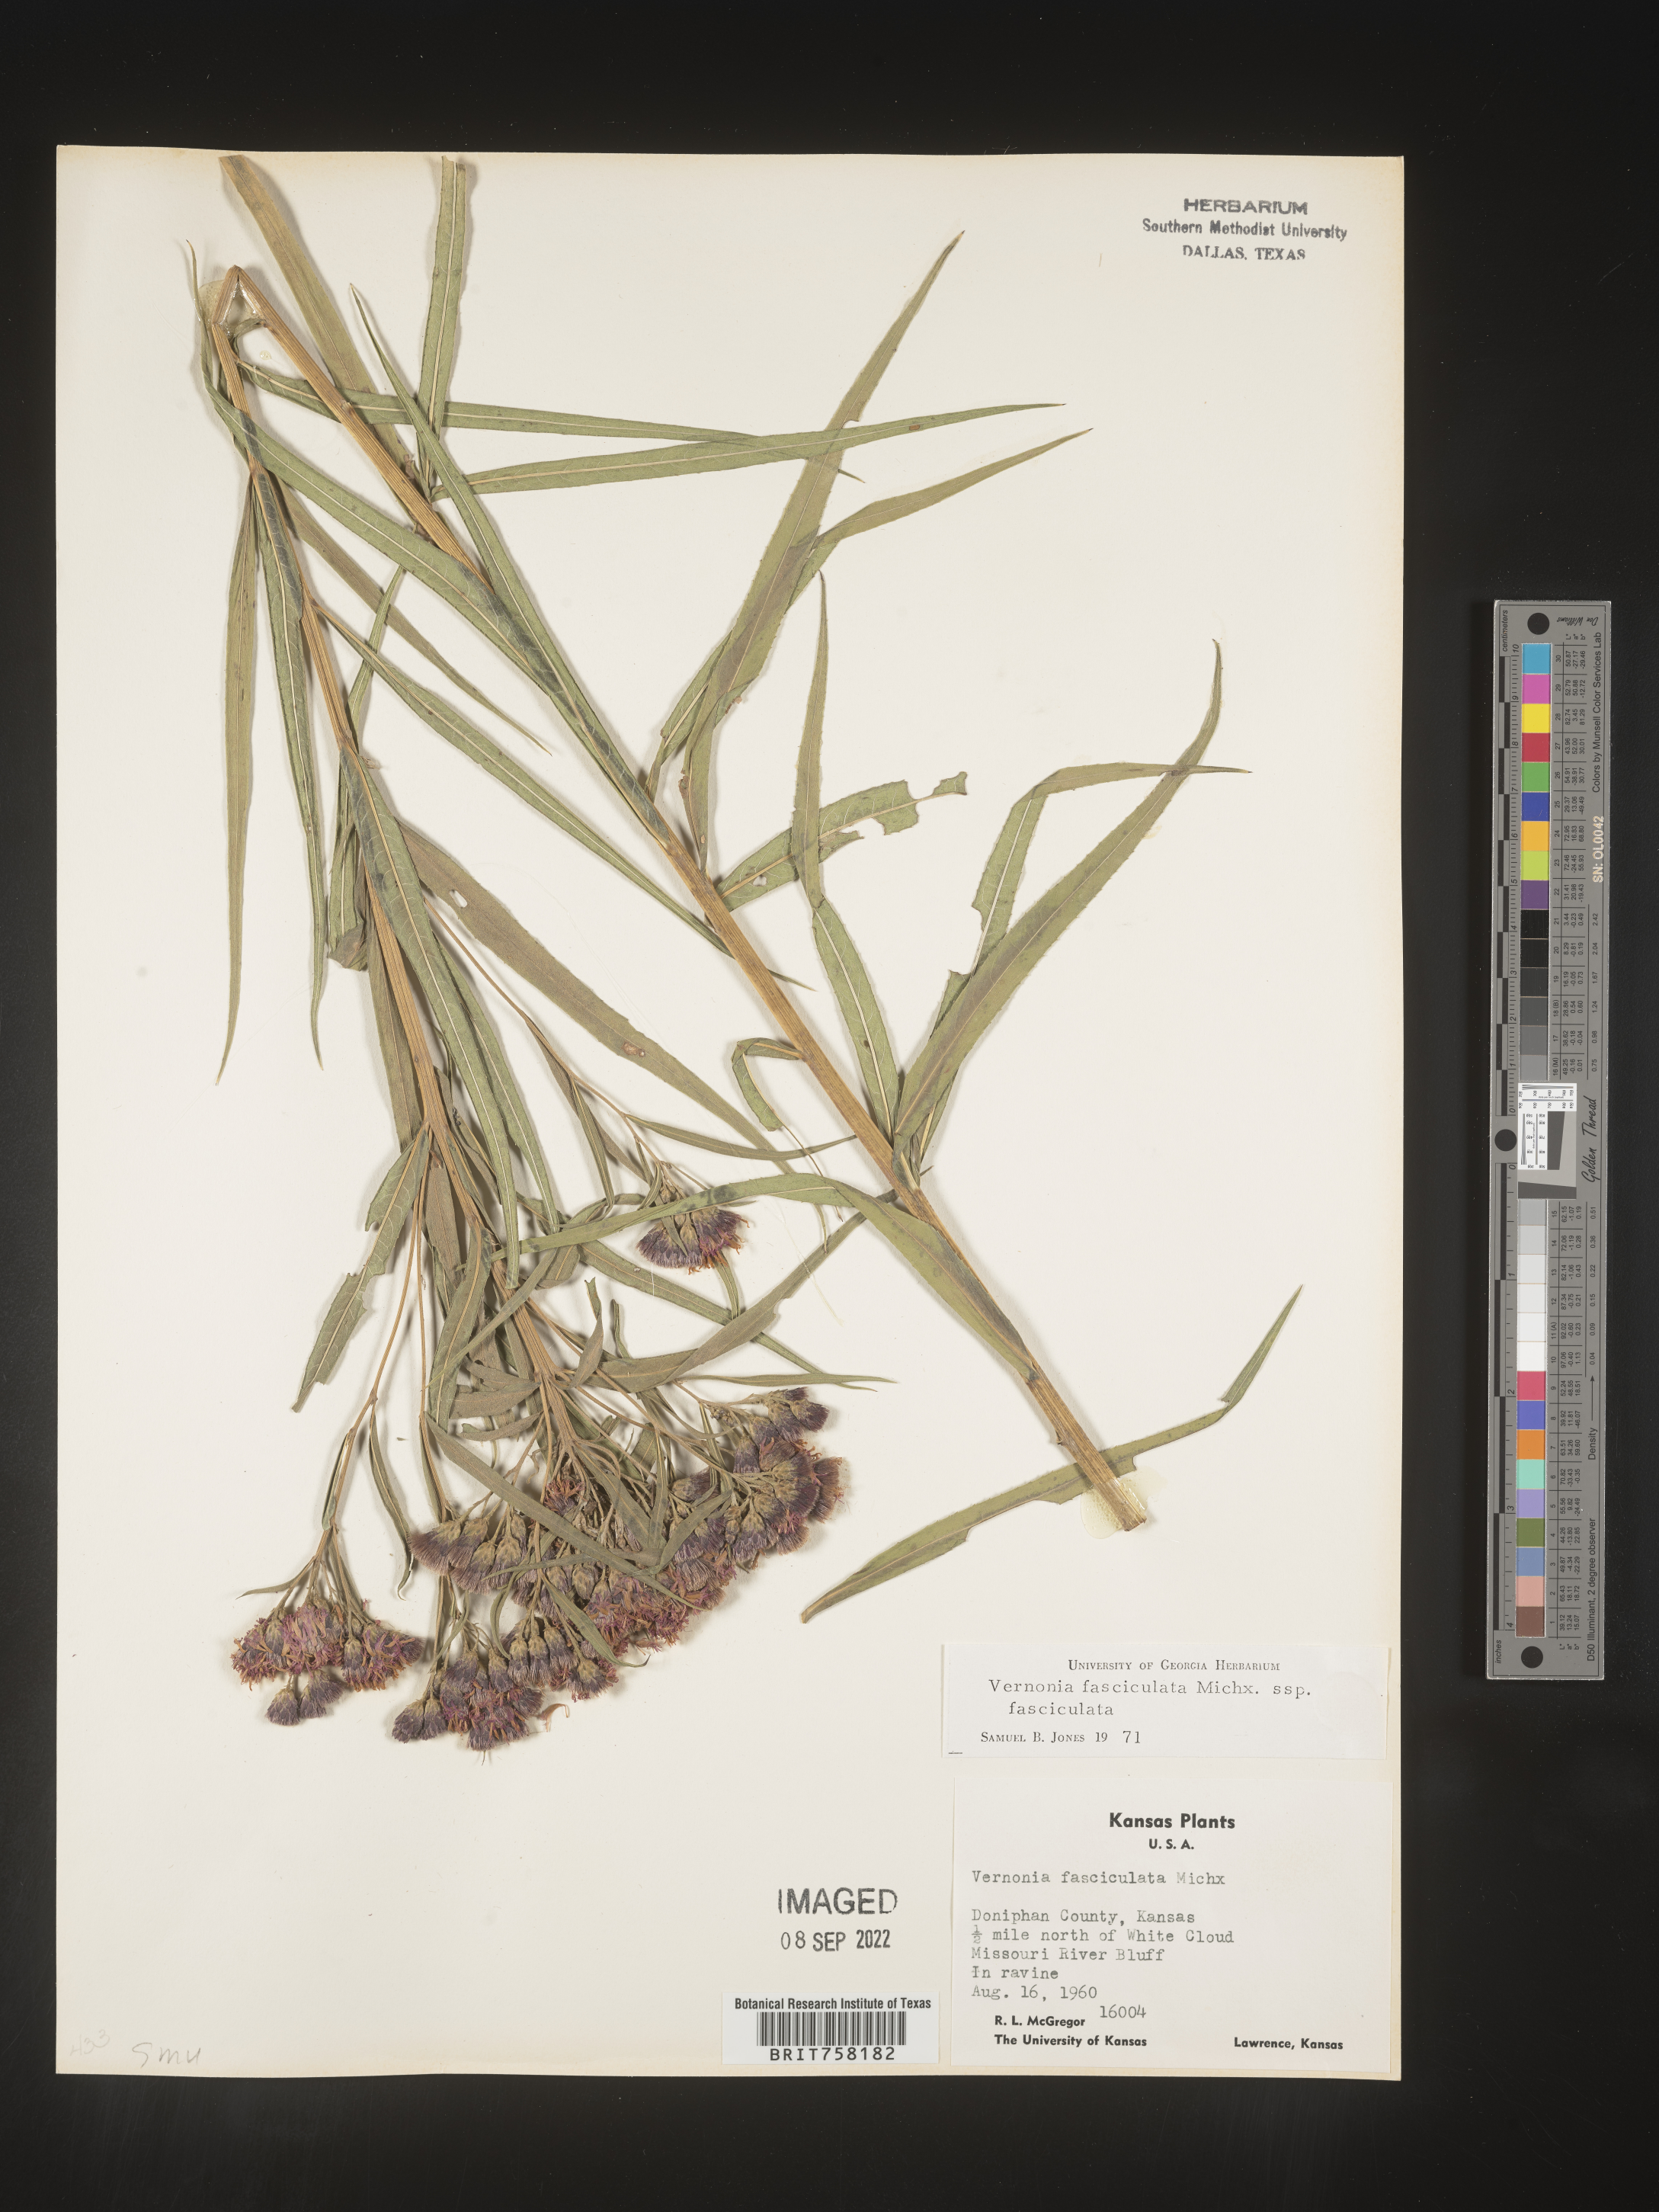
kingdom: Plantae
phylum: Tracheophyta
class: Magnoliopsida
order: Asterales
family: Asteraceae
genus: Vernonia
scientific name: Vernonia fasciculata
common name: Fascicled ironweed
